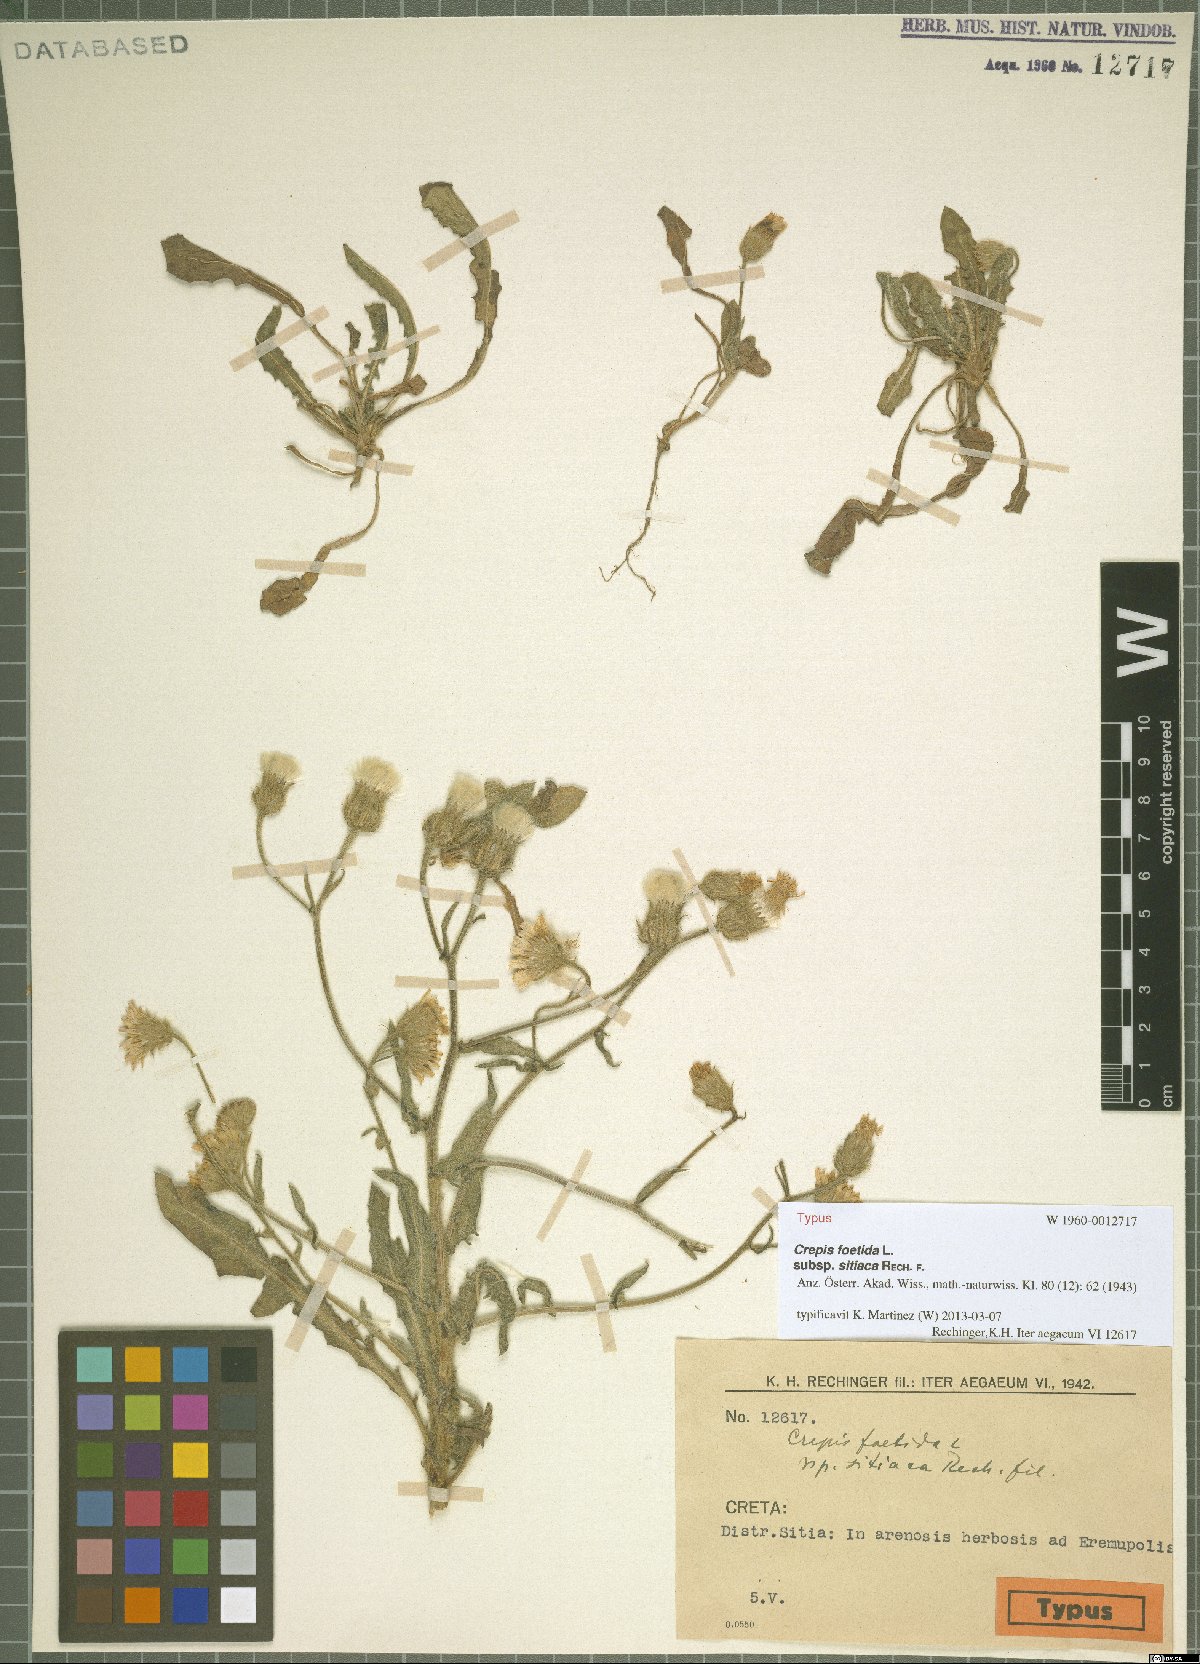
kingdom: Plantae
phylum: Tracheophyta
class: Magnoliopsida
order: Asterales
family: Asteraceae
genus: Crepis
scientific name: Crepis foetida
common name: Stinking hawk's-beard
